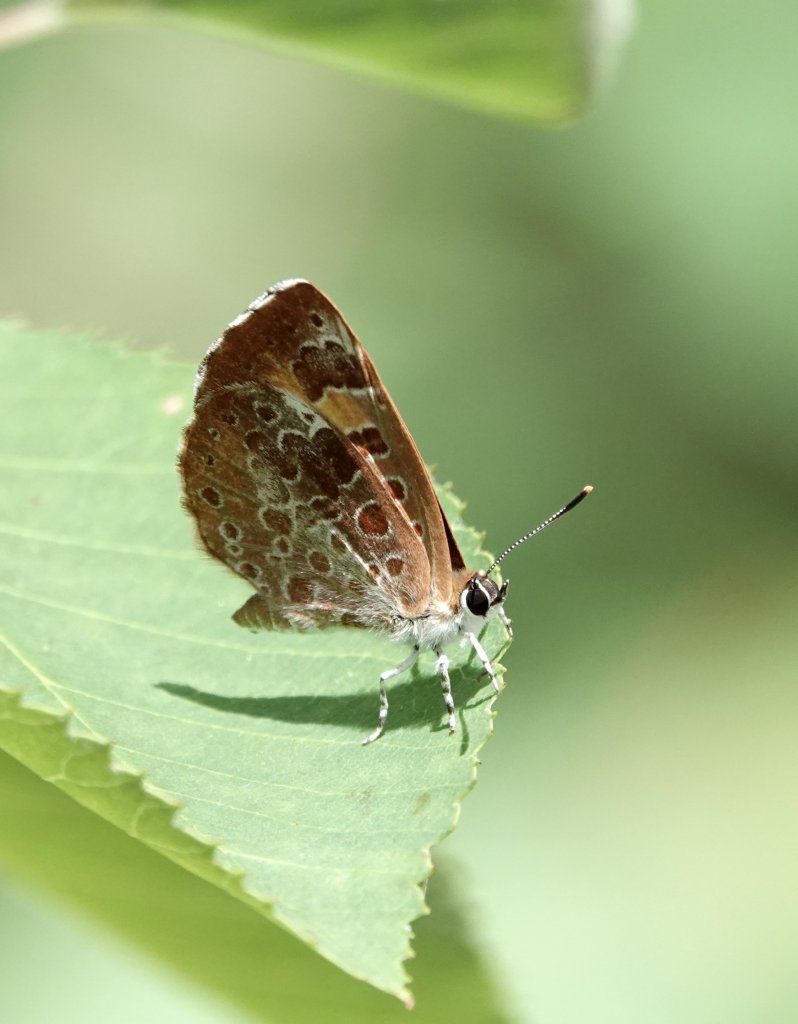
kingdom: Animalia
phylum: Arthropoda
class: Insecta
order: Lepidoptera
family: Lycaenidae
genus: Feniseca
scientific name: Feniseca tarquinius
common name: Harvester
